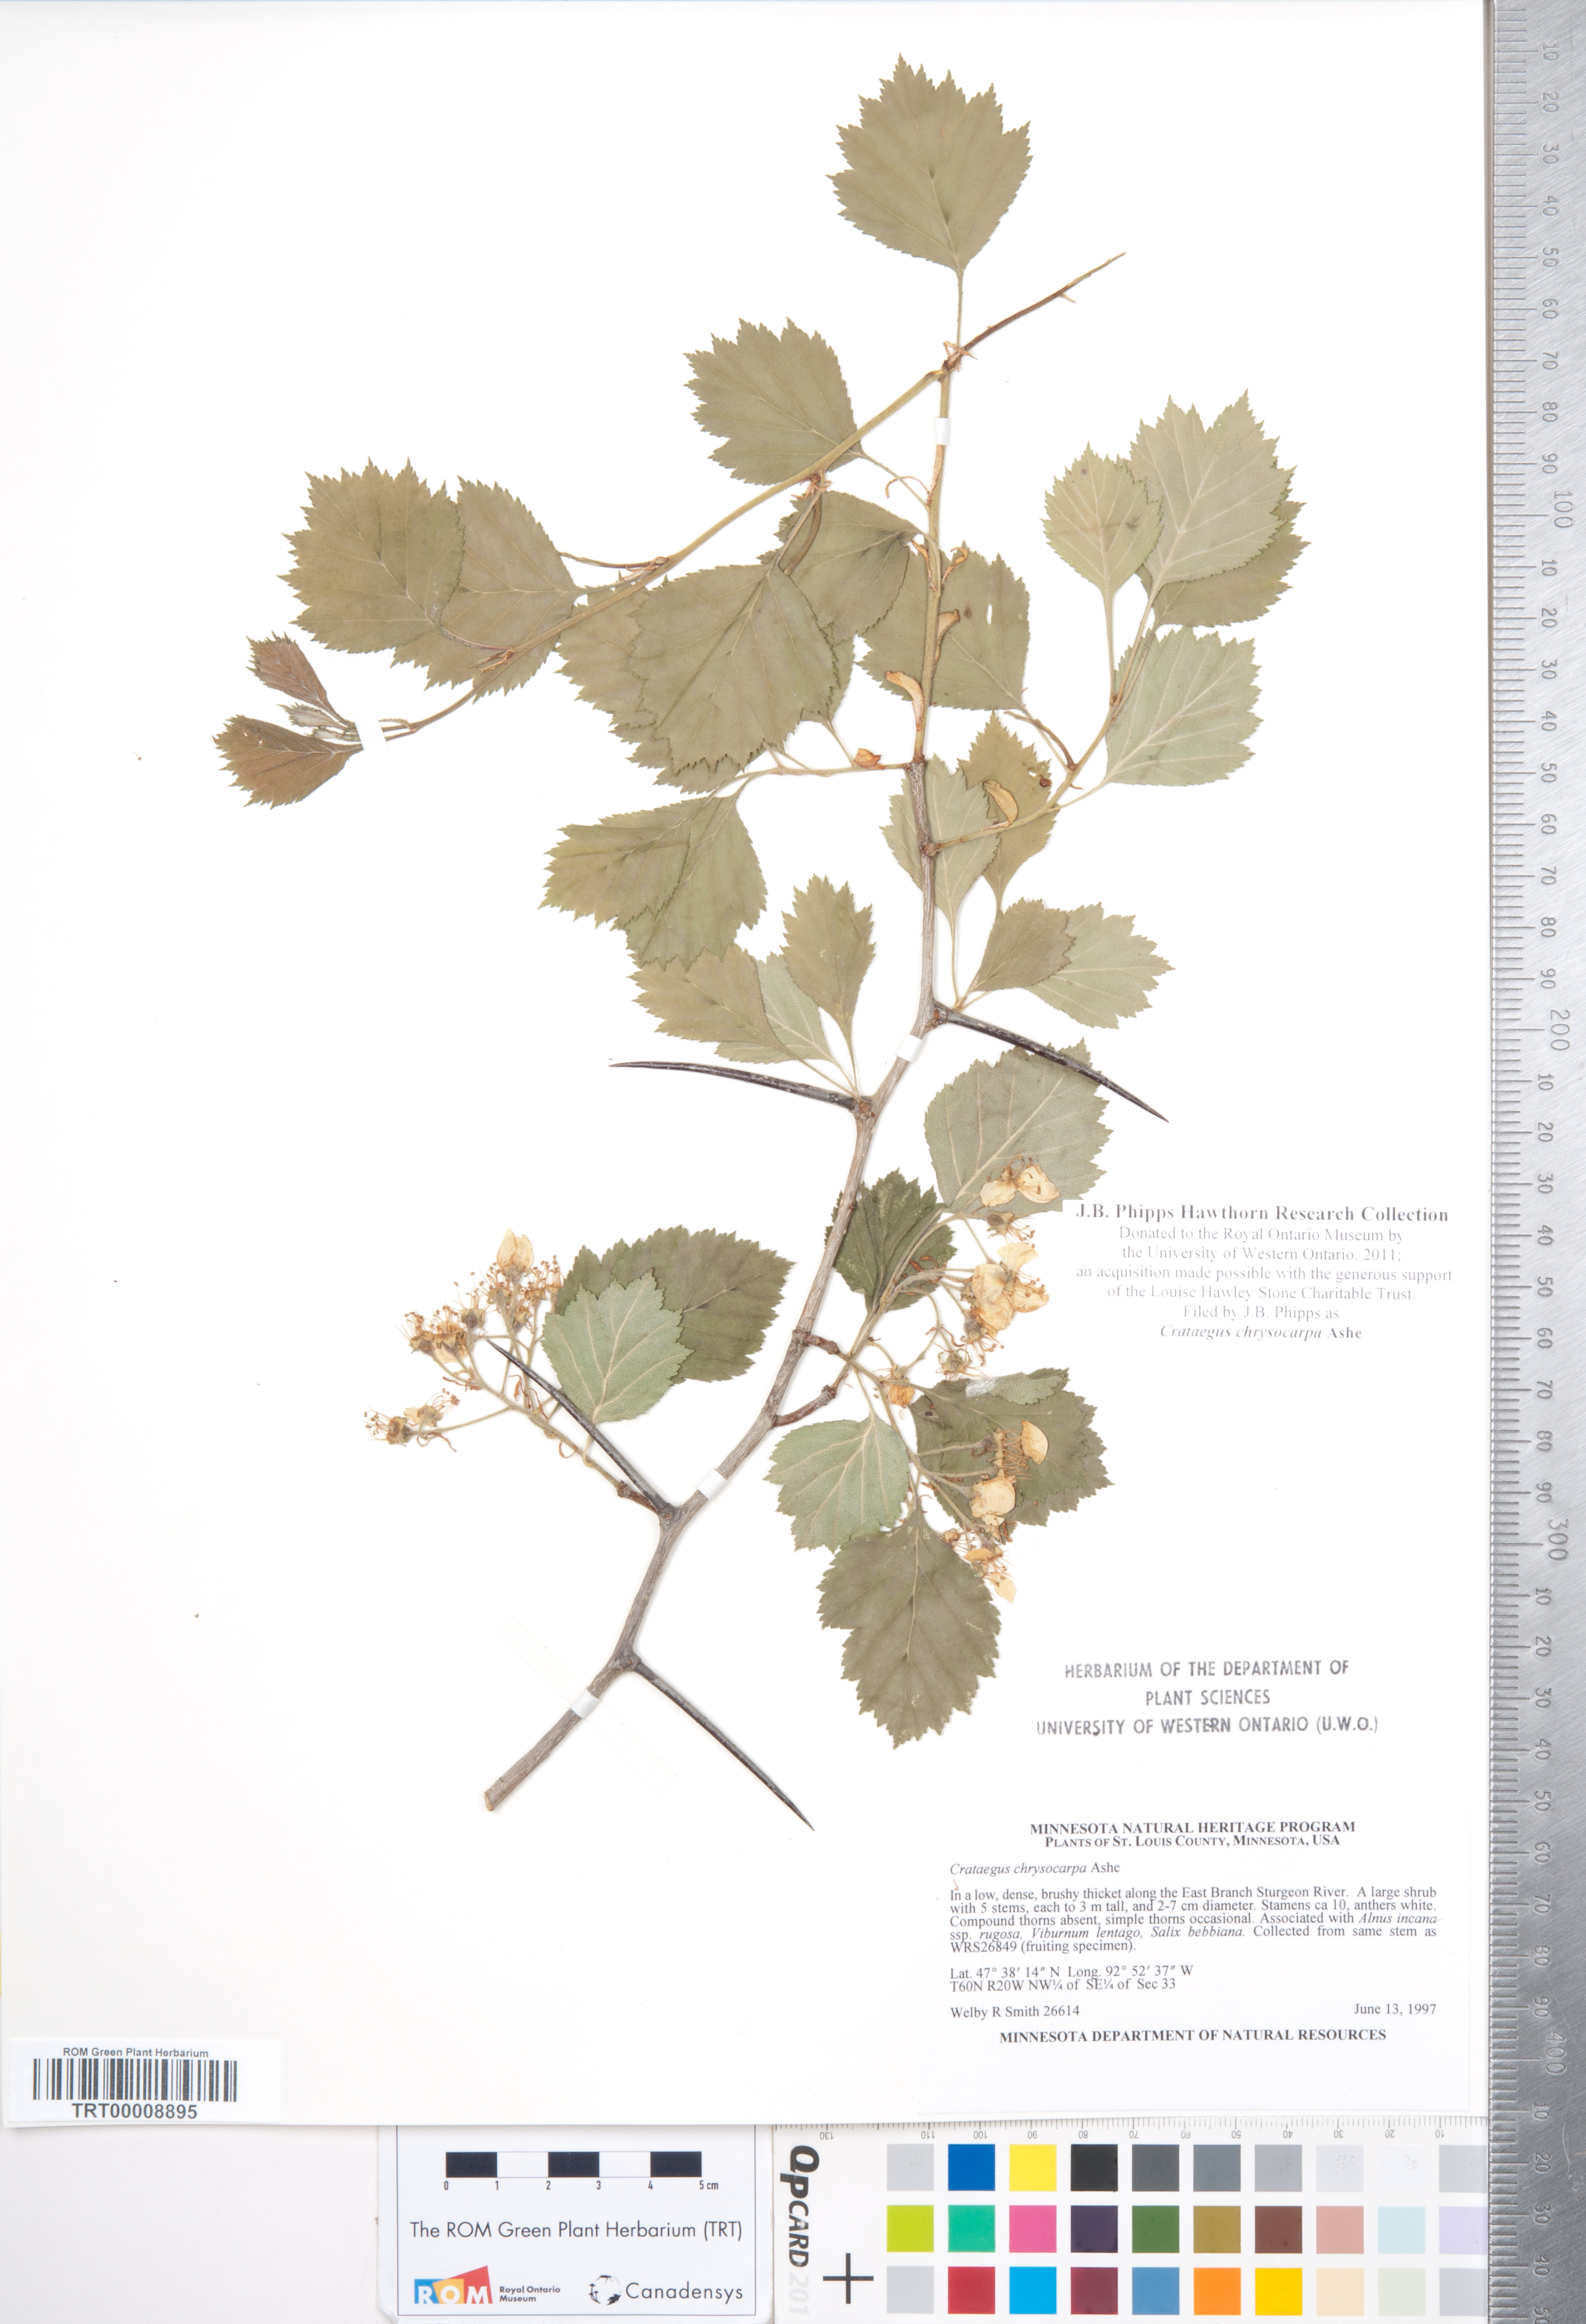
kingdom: Plantae
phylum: Tracheophyta
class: Magnoliopsida
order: Rosales
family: Rosaceae
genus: Crataegus
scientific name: Crataegus chrysocarpa
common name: Fire-berry hawthorn
